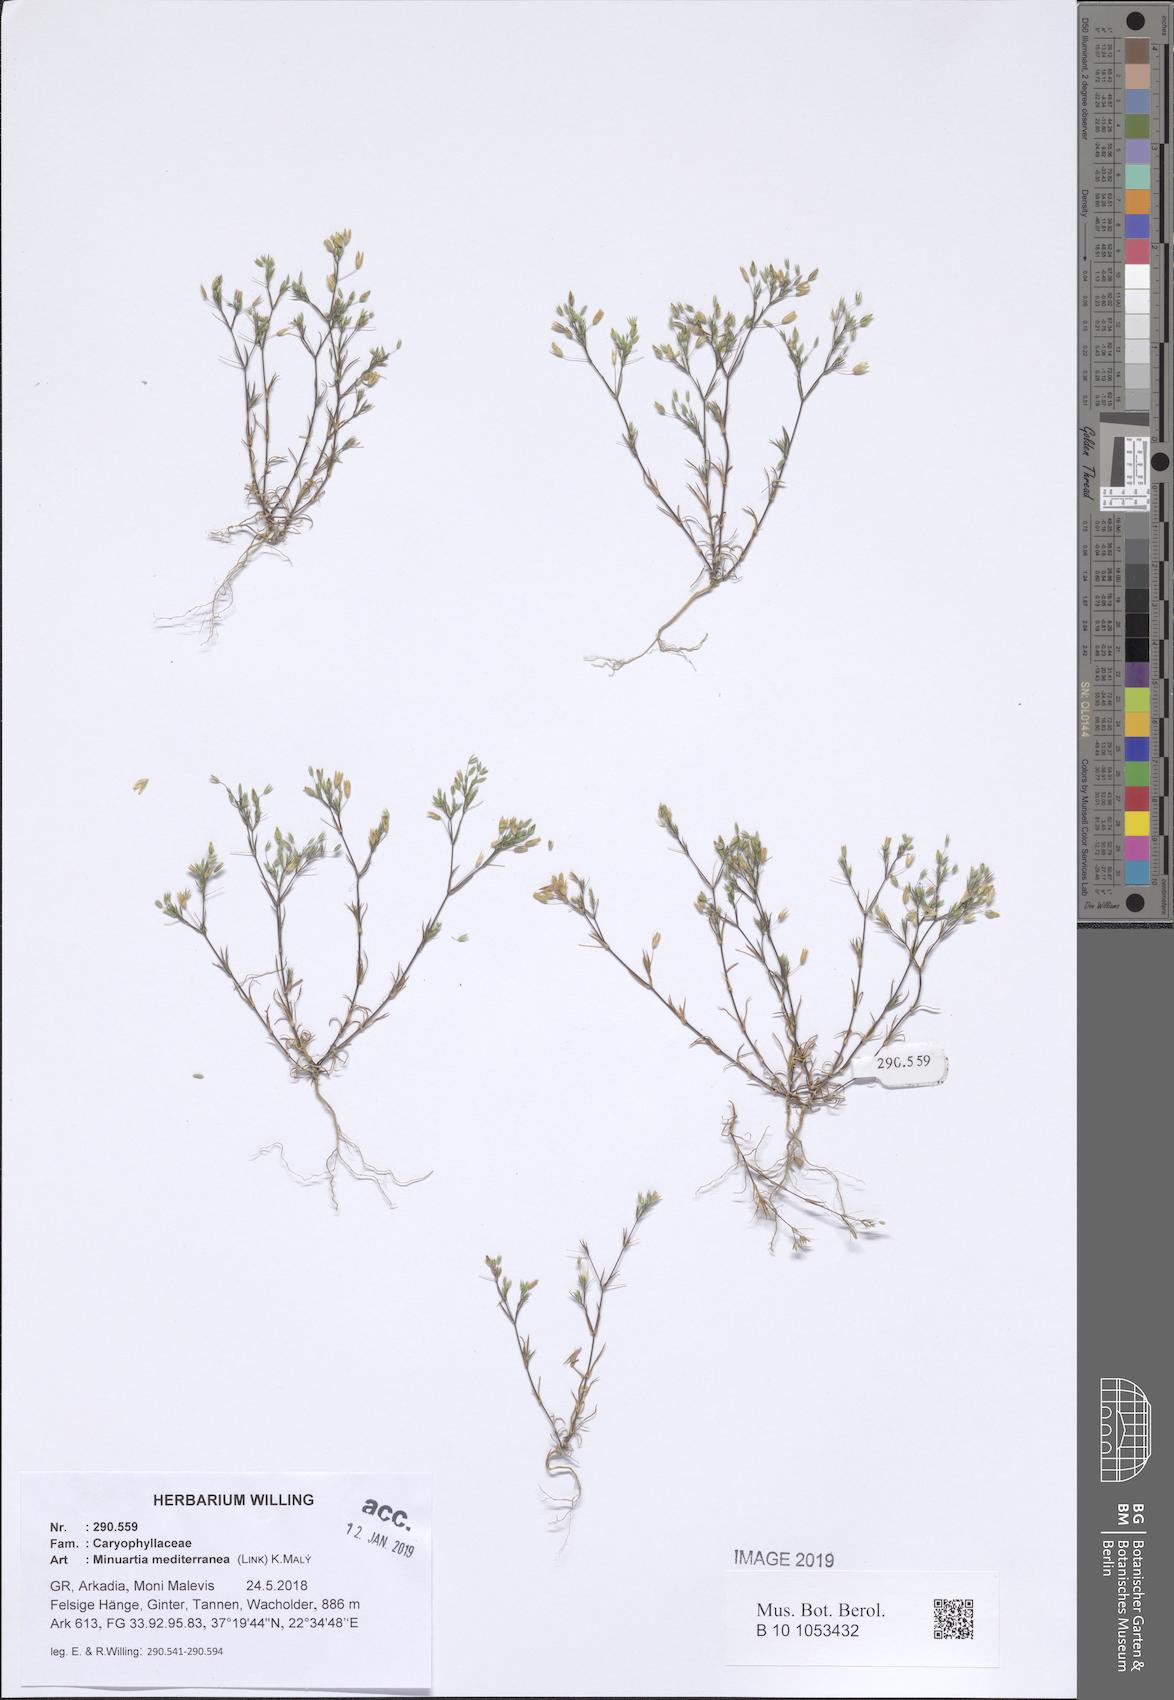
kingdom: Plantae
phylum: Tracheophyta
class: Magnoliopsida
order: Caryophyllales
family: Caryophyllaceae
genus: Sabulina
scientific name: Sabulina mediterranea
